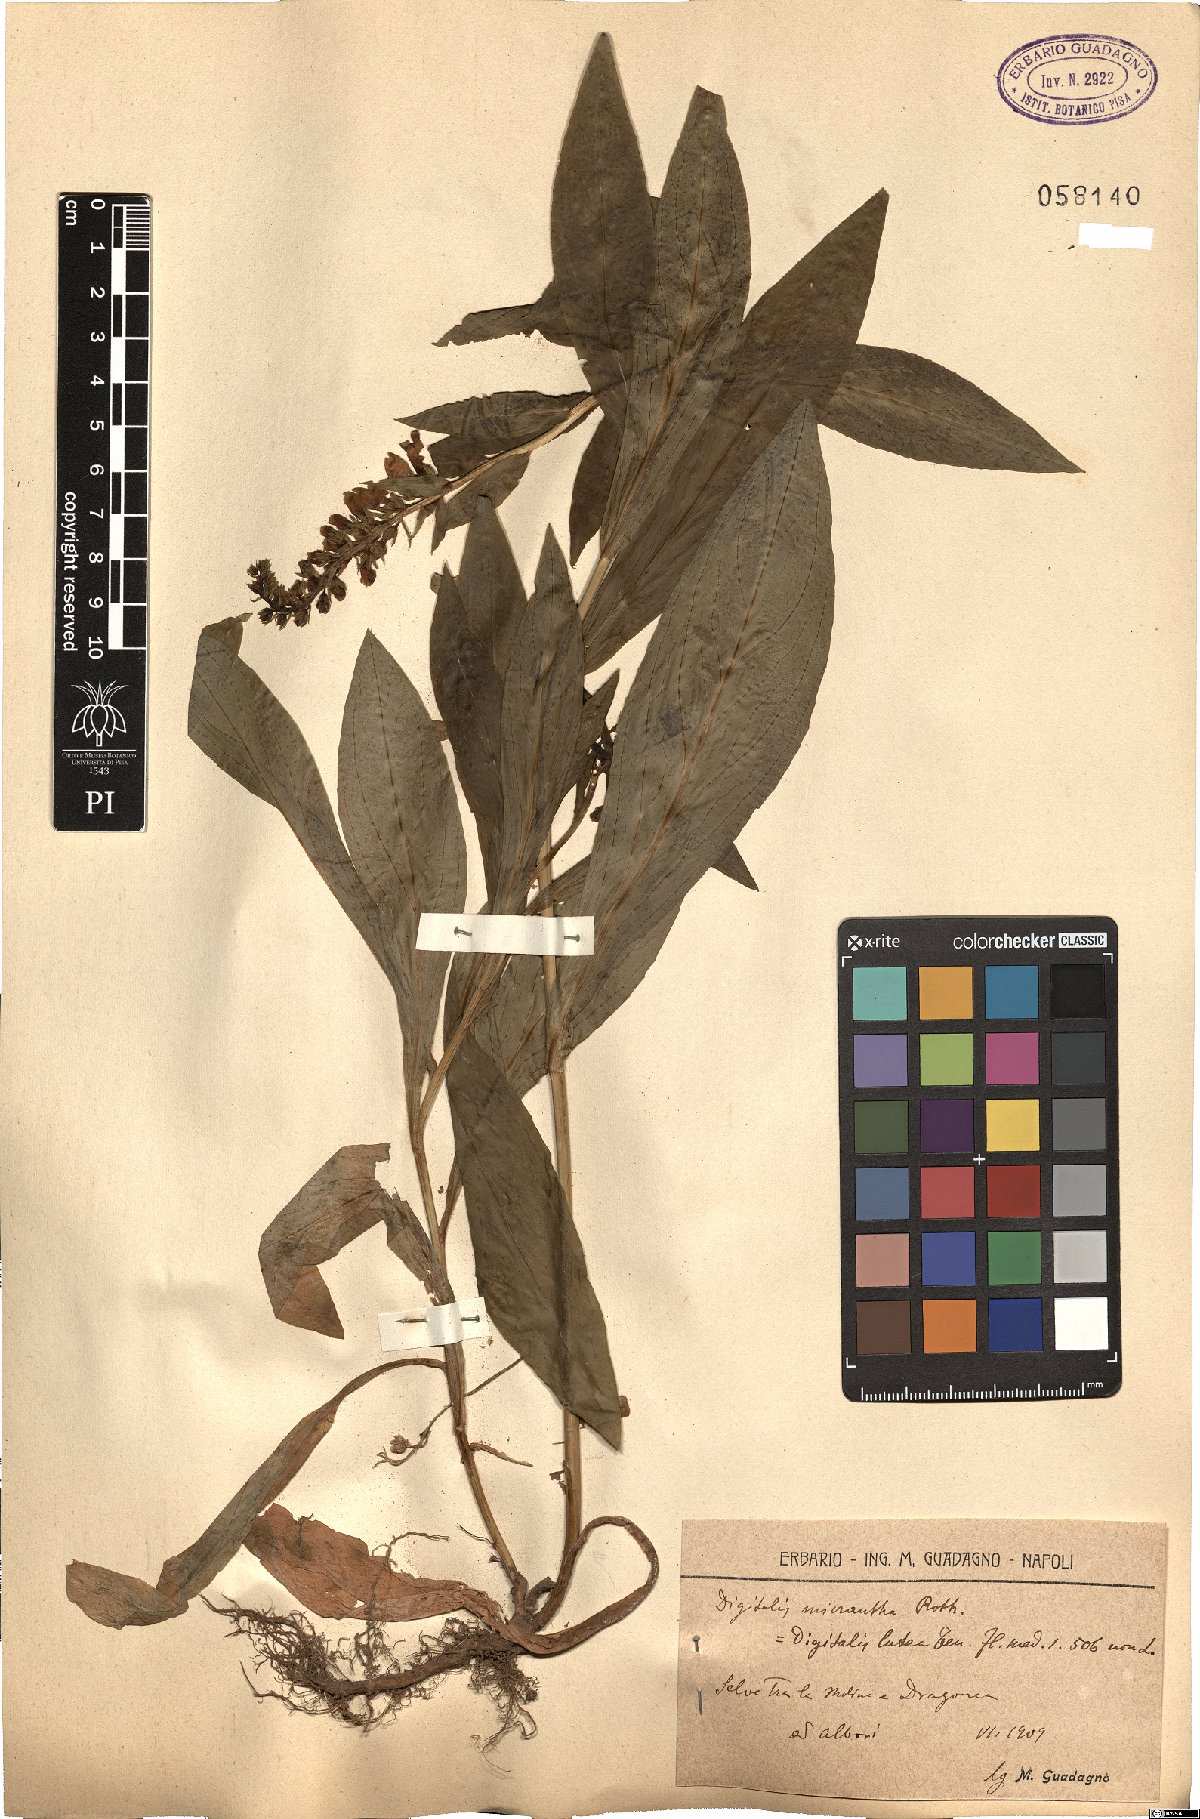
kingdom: Plantae
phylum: Tracheophyta
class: Magnoliopsida
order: Lamiales
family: Plantaginaceae
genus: Digitalis
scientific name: Digitalis lutea
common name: Straw foxglove
